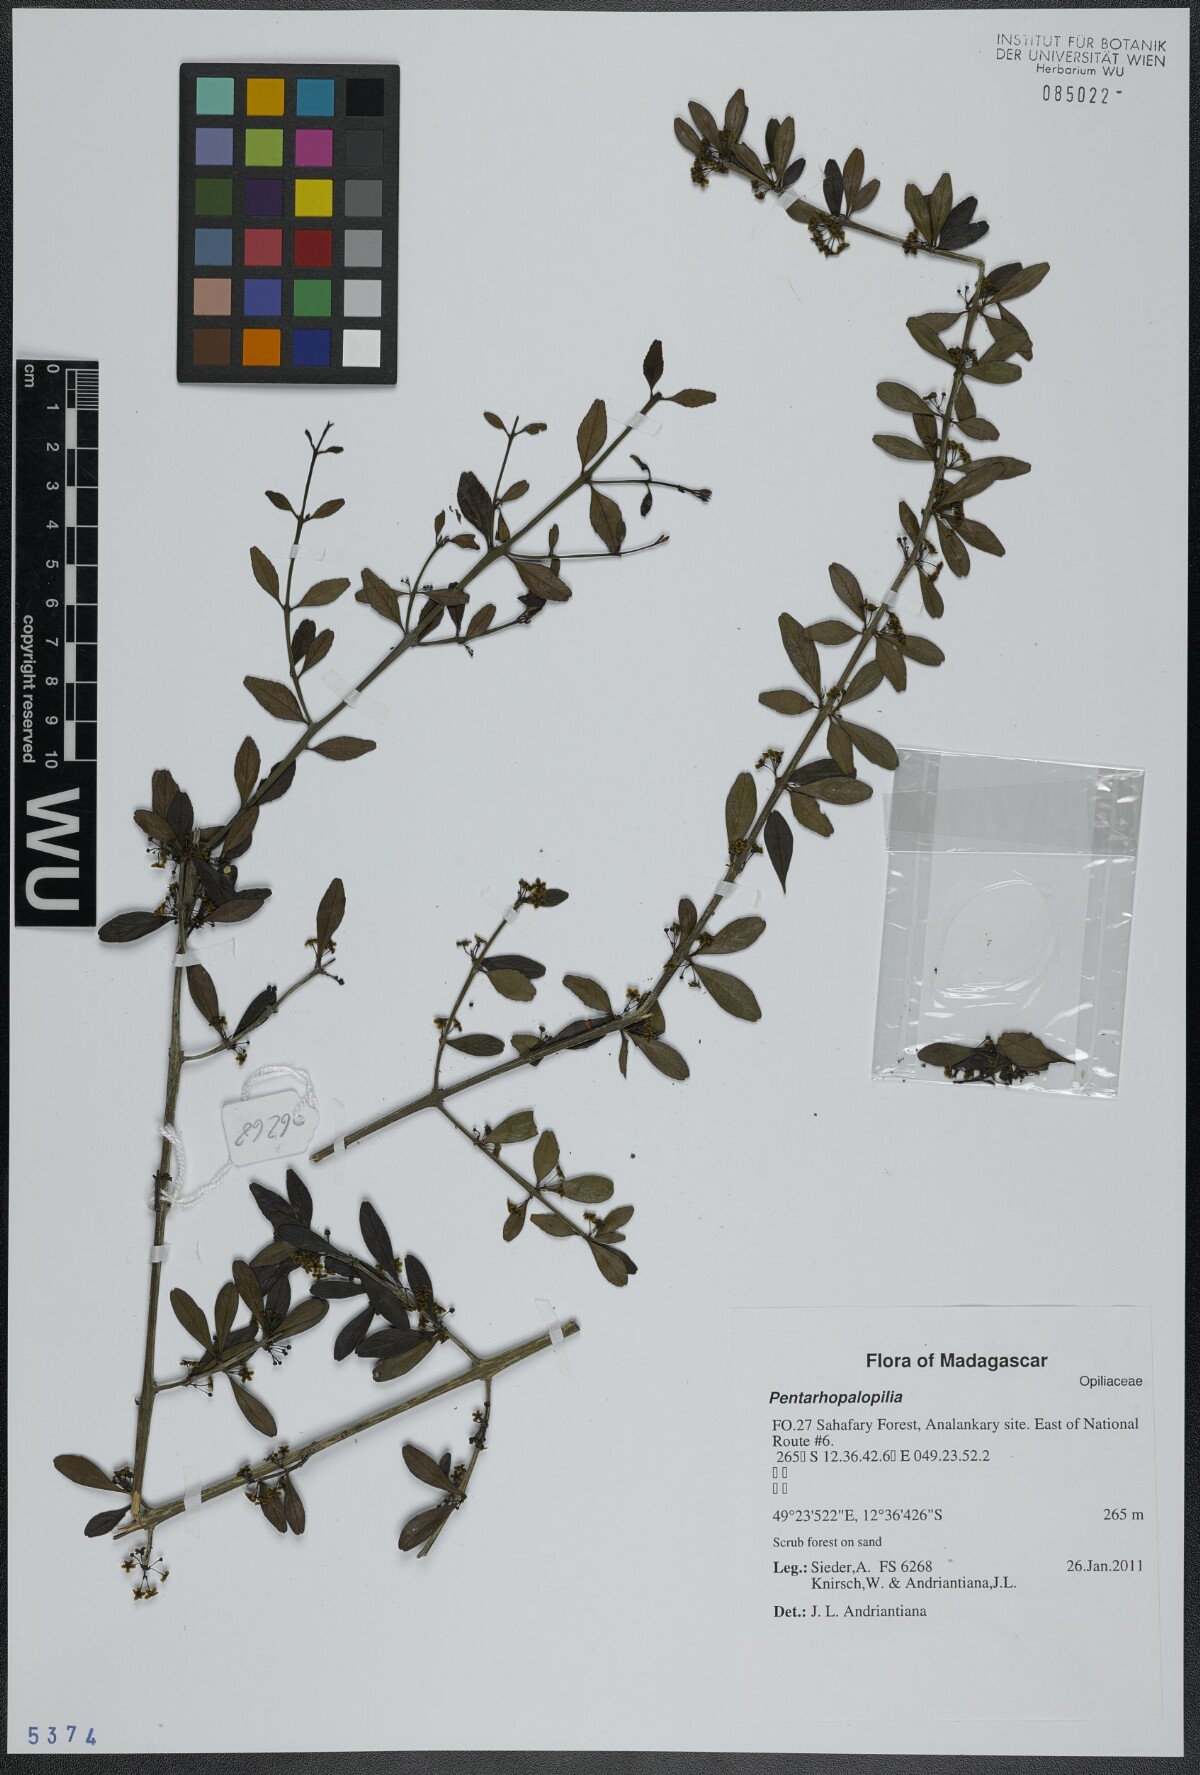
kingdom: Plantae
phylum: Tracheophyta
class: Magnoliopsida
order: Santalales
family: Opiliaceae
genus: Pentarhopalopilia
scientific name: Pentarhopalopilia
